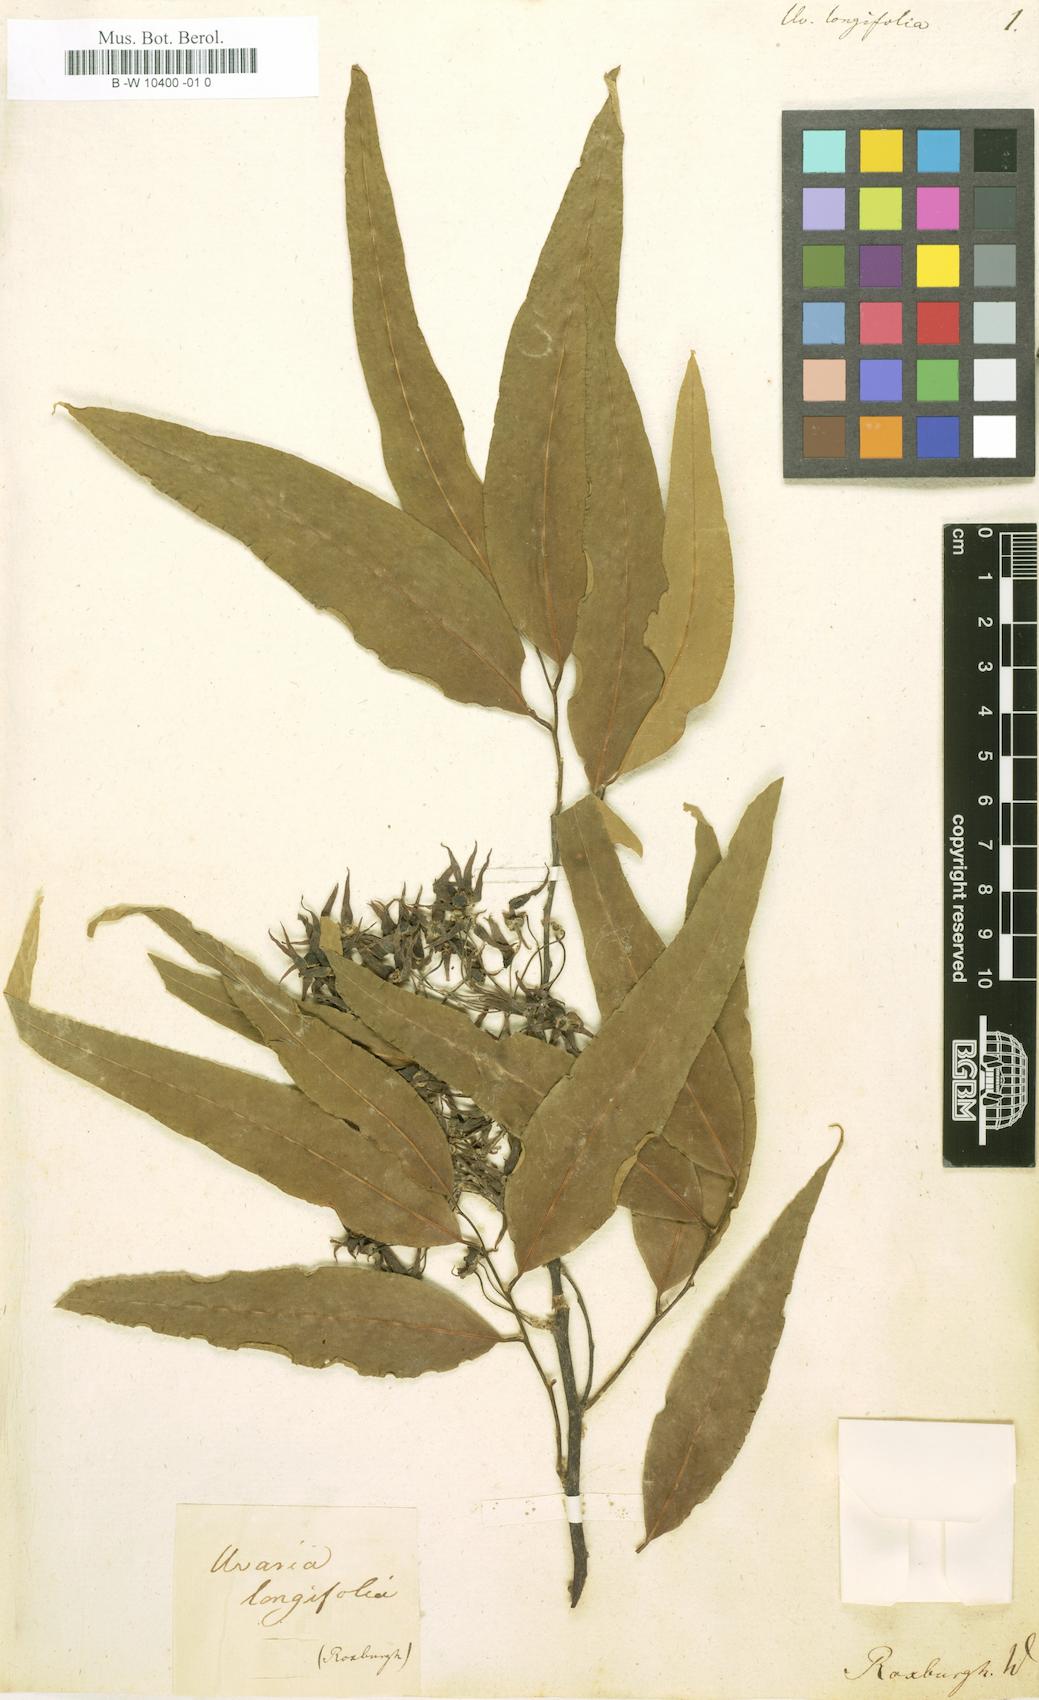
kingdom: Plantae
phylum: Tracheophyta
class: Magnoliopsida
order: Magnoliales
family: Annonaceae
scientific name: Annonaceae
